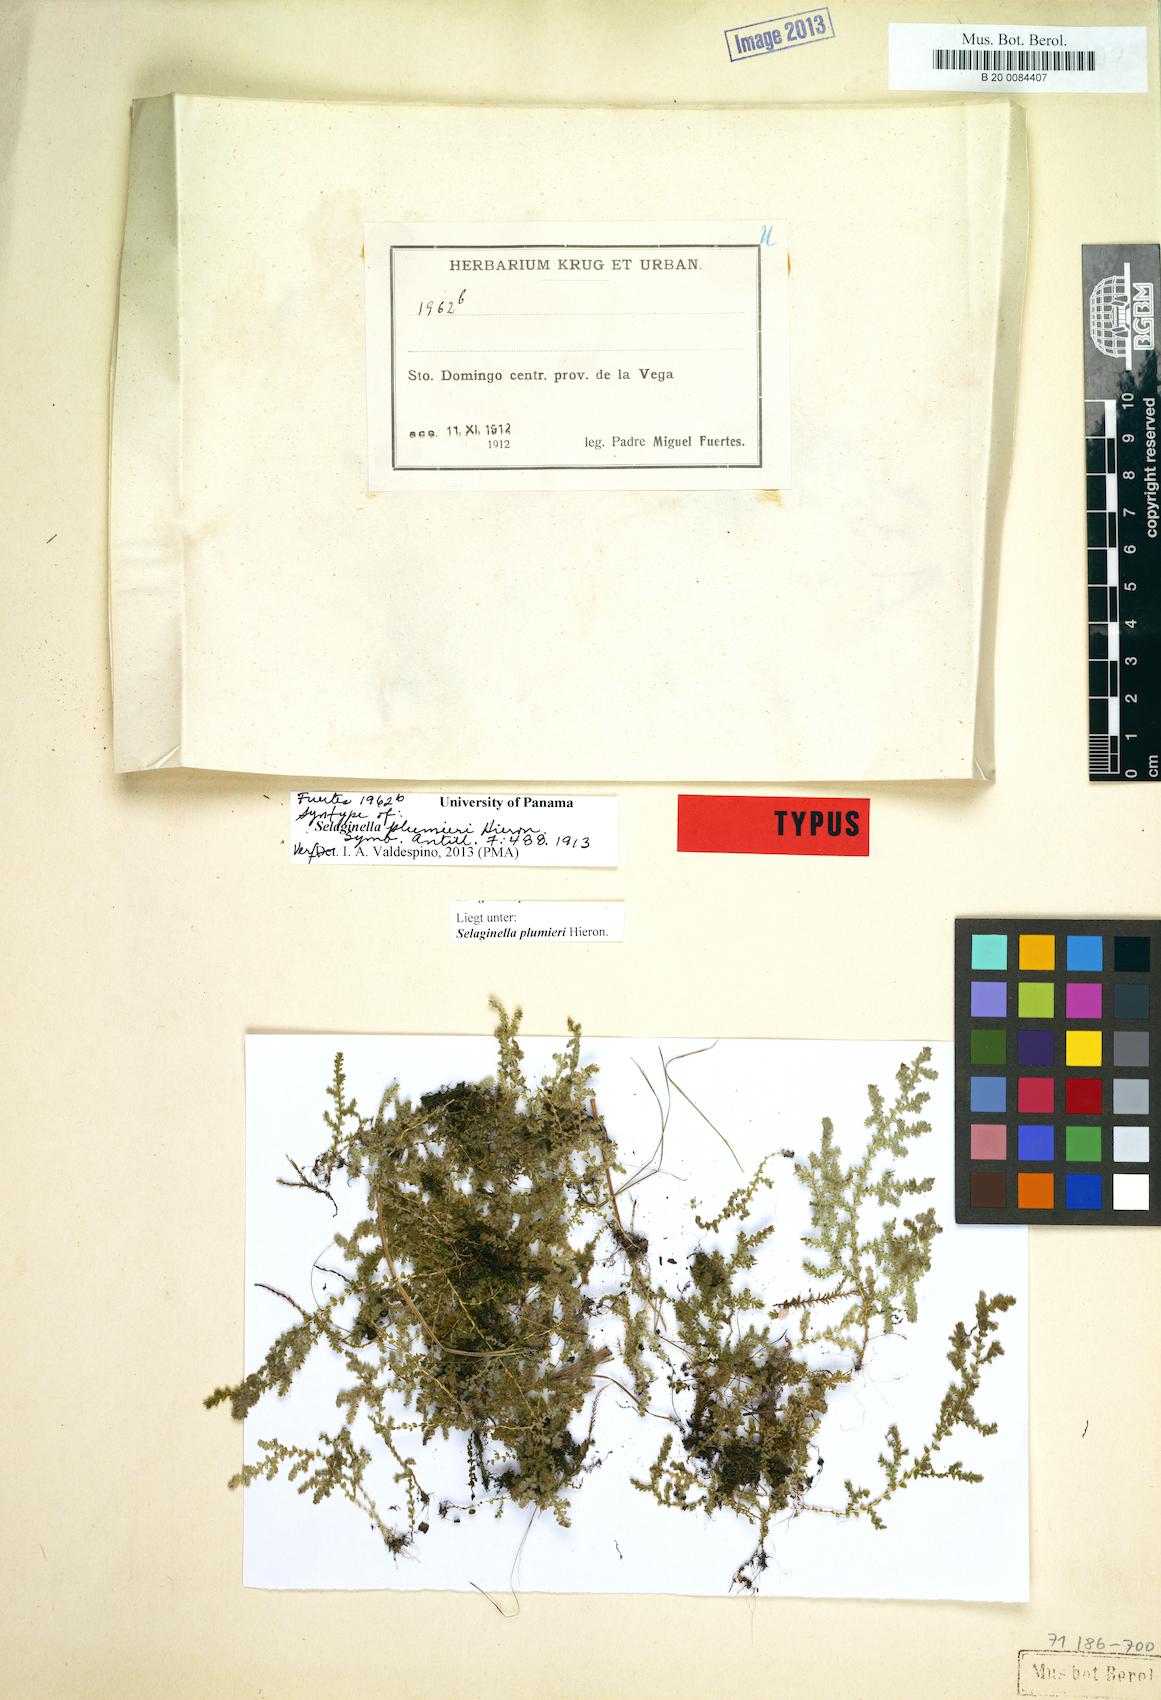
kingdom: Plantae
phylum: Tracheophyta
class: Lycopodiopsida
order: Selaginellales
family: Selaginellaceae
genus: Selaginella
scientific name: Selaginella plumieri
